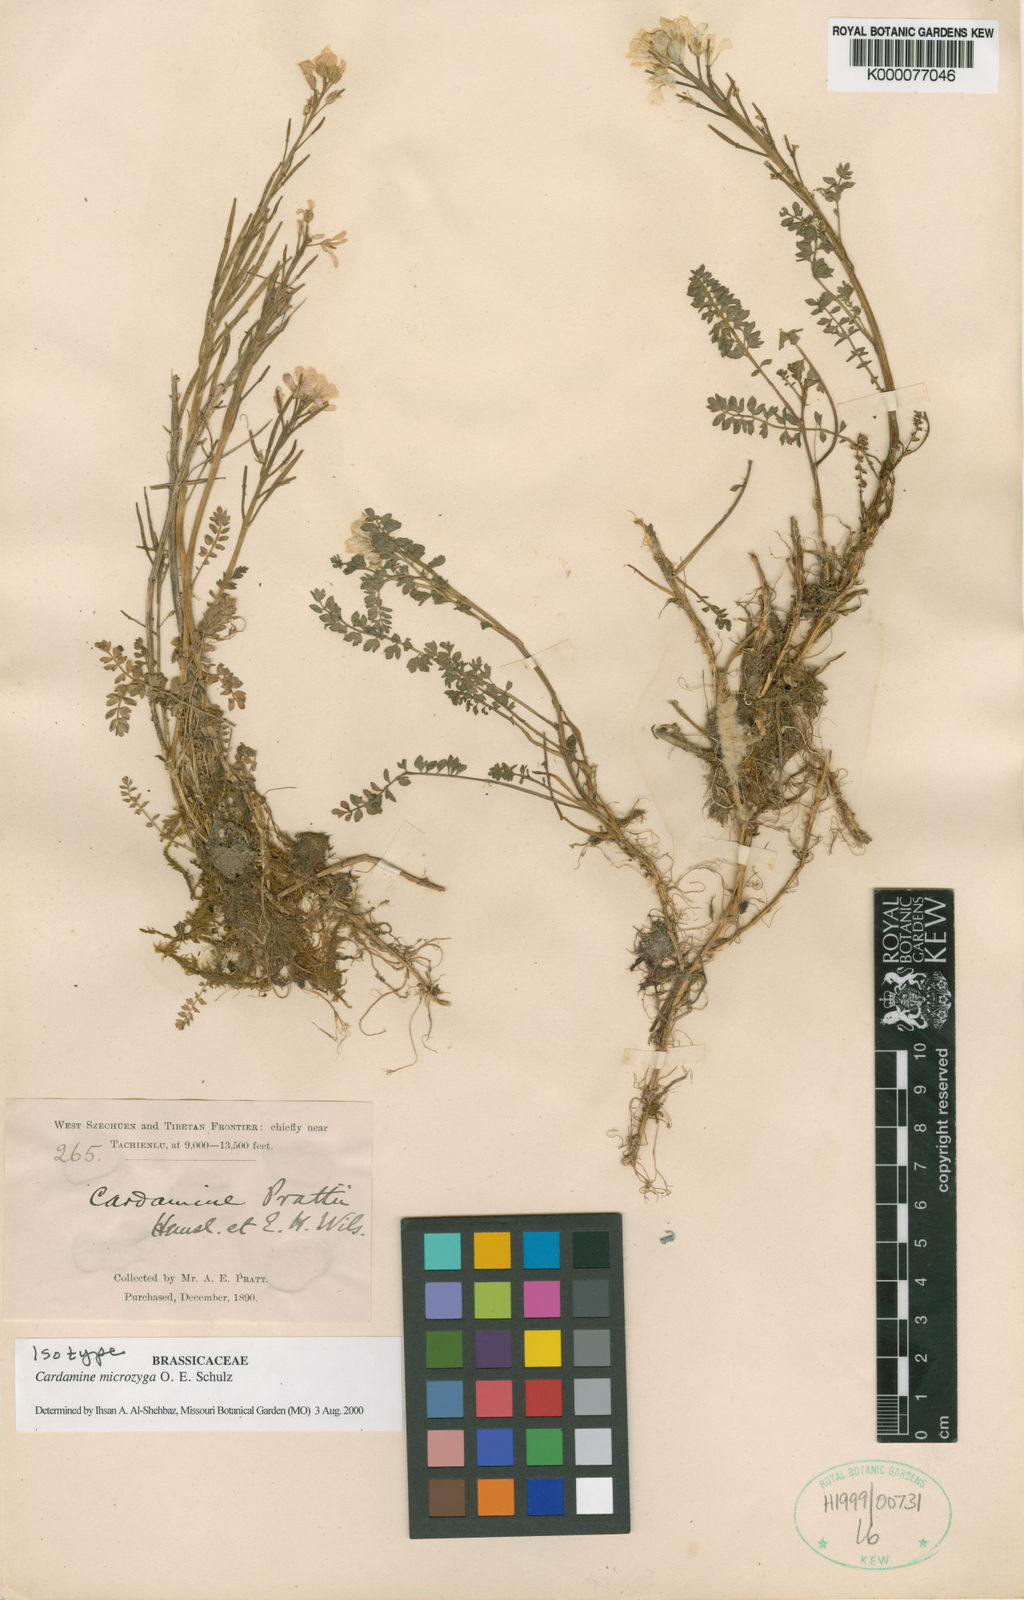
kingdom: Plantae
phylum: Tracheophyta
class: Magnoliopsida
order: Brassicales
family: Brassicaceae
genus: Cardamine
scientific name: Cardamine microzyga
